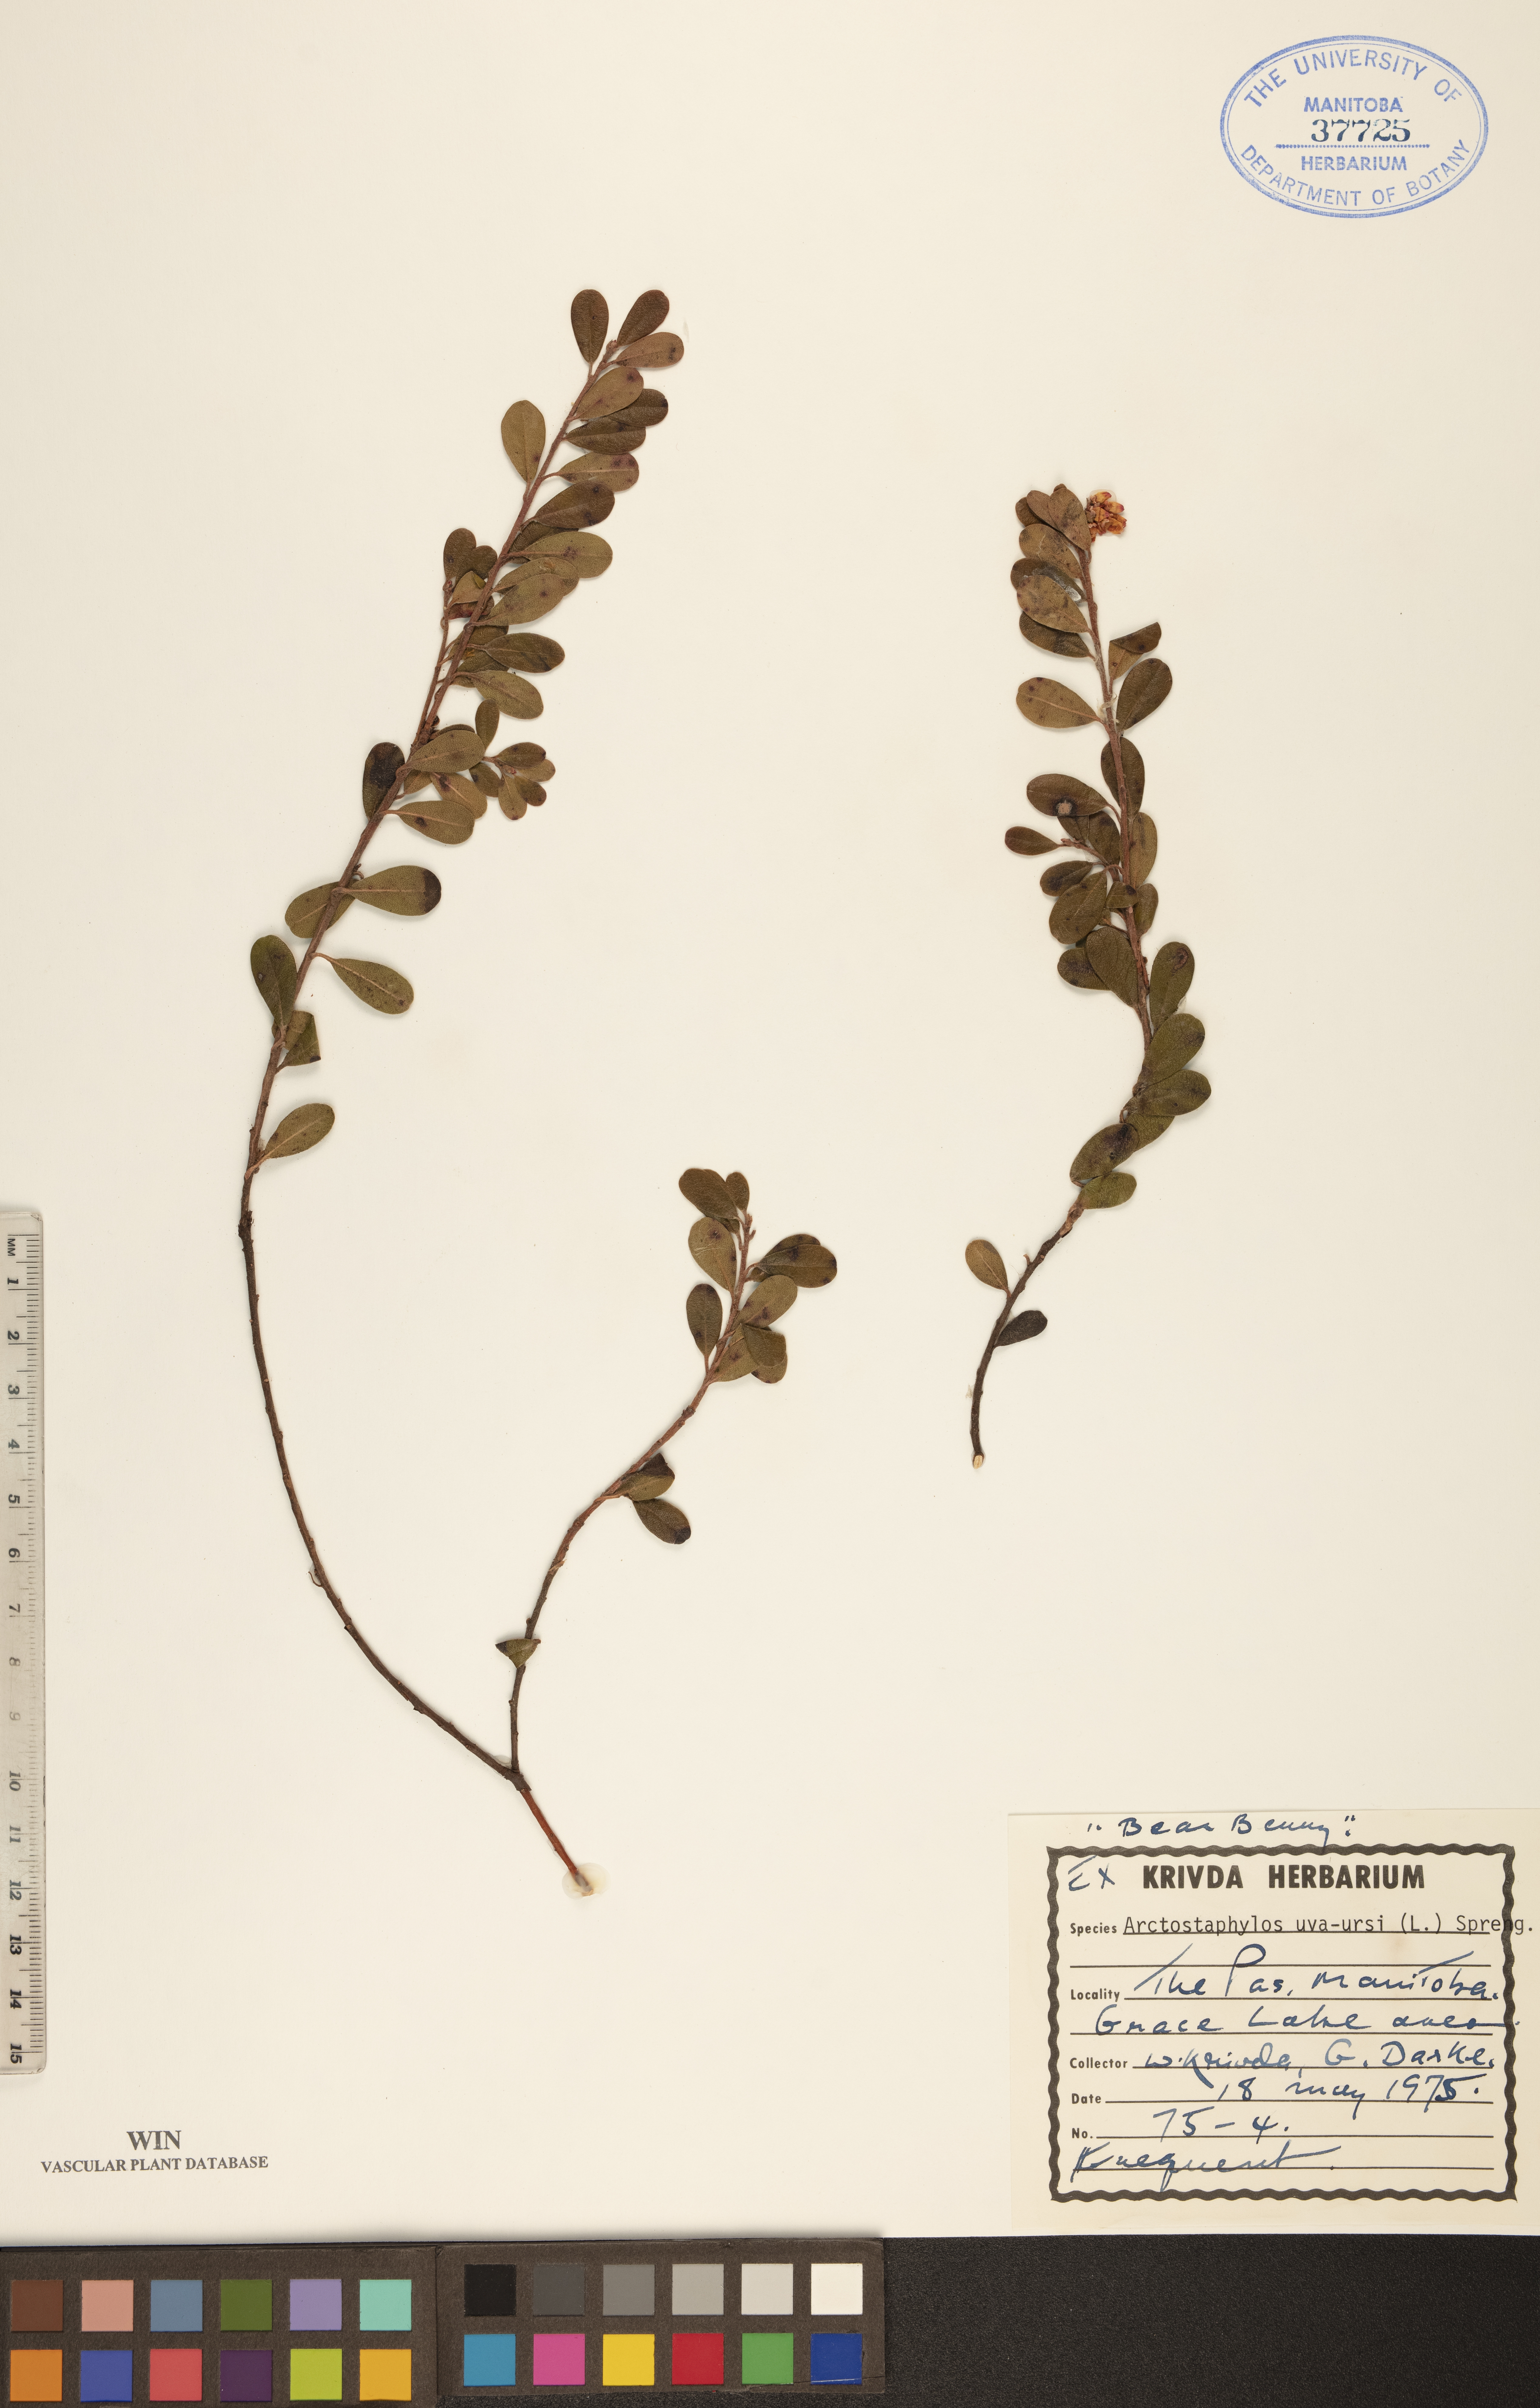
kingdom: Plantae
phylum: Tracheophyta
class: Magnoliopsida
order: Ericales
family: Ericaceae
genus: Arctostaphylos
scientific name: Arctostaphylos uva-ursi
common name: Bearberry
